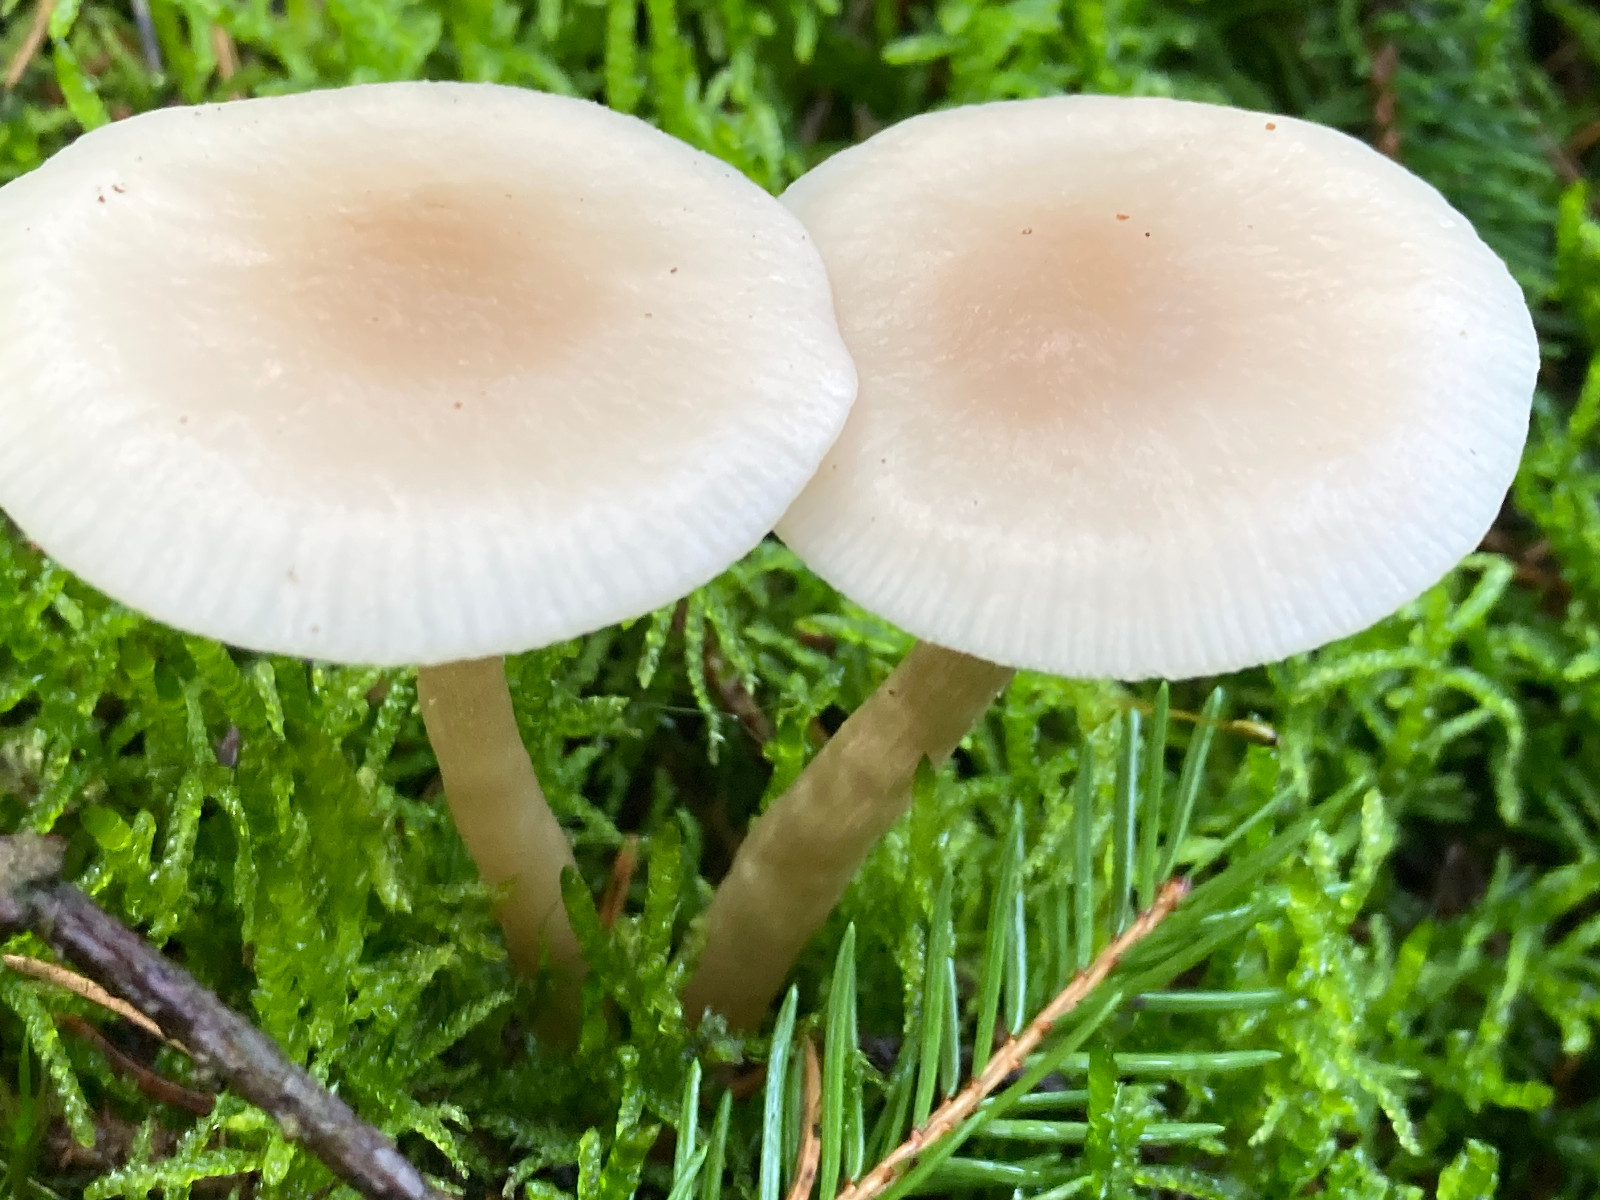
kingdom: Fungi
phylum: Basidiomycota
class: Agaricomycetes
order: Agaricales
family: Tricholomataceae
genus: Clitocybe
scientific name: Clitocybe fragrans
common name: vellugtende tragthat
